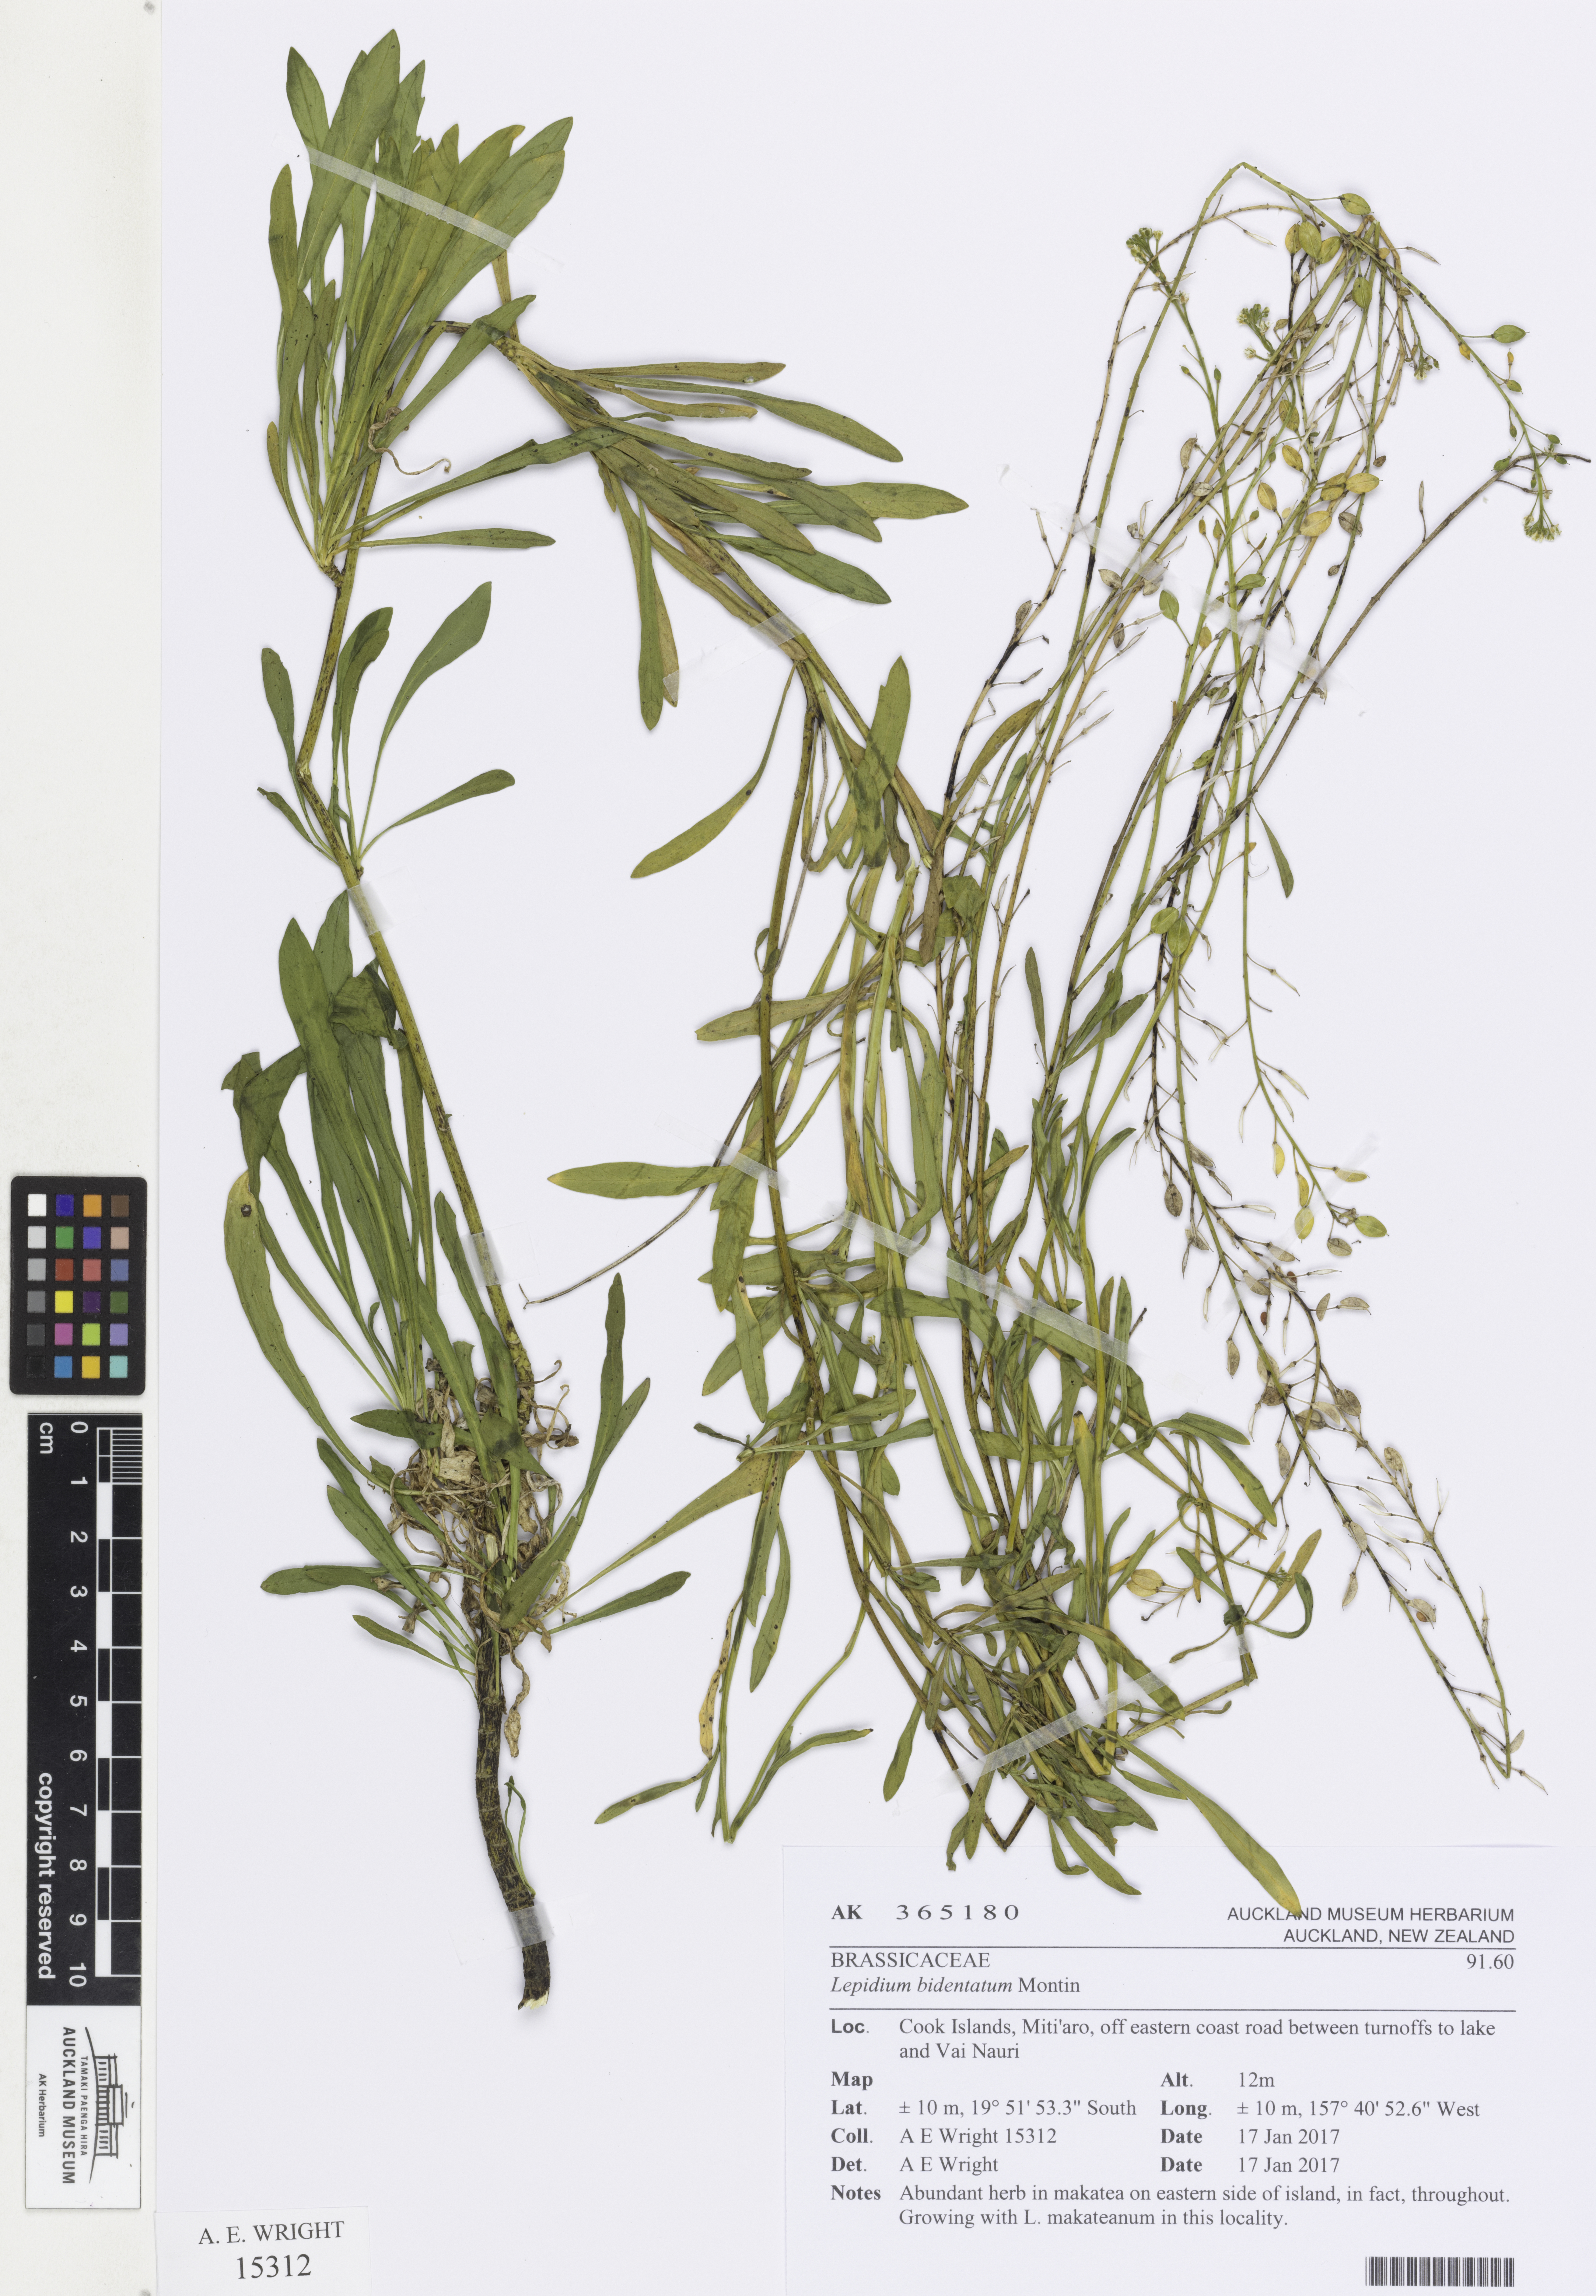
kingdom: Plantae
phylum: Tracheophyta
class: Magnoliopsida
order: Brassicales
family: Brassicaceae
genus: Lepidium
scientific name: Lepidium bidentatum
